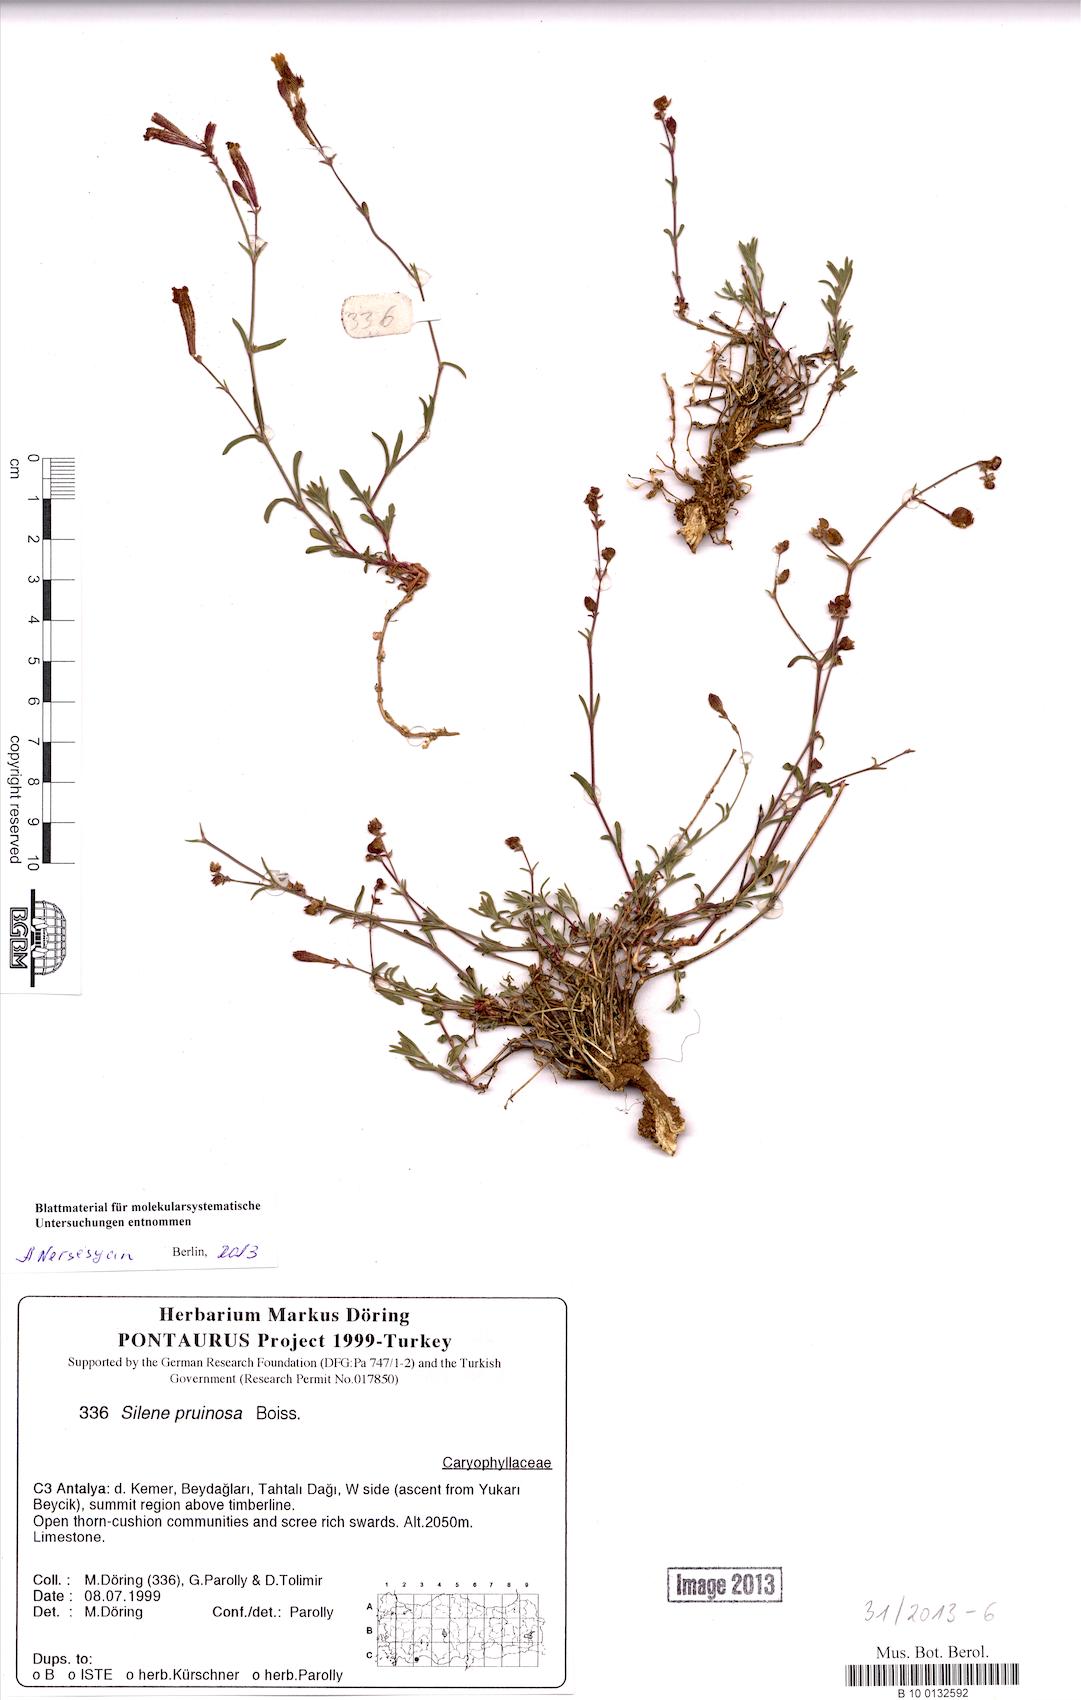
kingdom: Plantae
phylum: Tracheophyta
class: Magnoliopsida
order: Caryophyllales
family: Caryophyllaceae
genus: Silene
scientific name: Silene argentea
